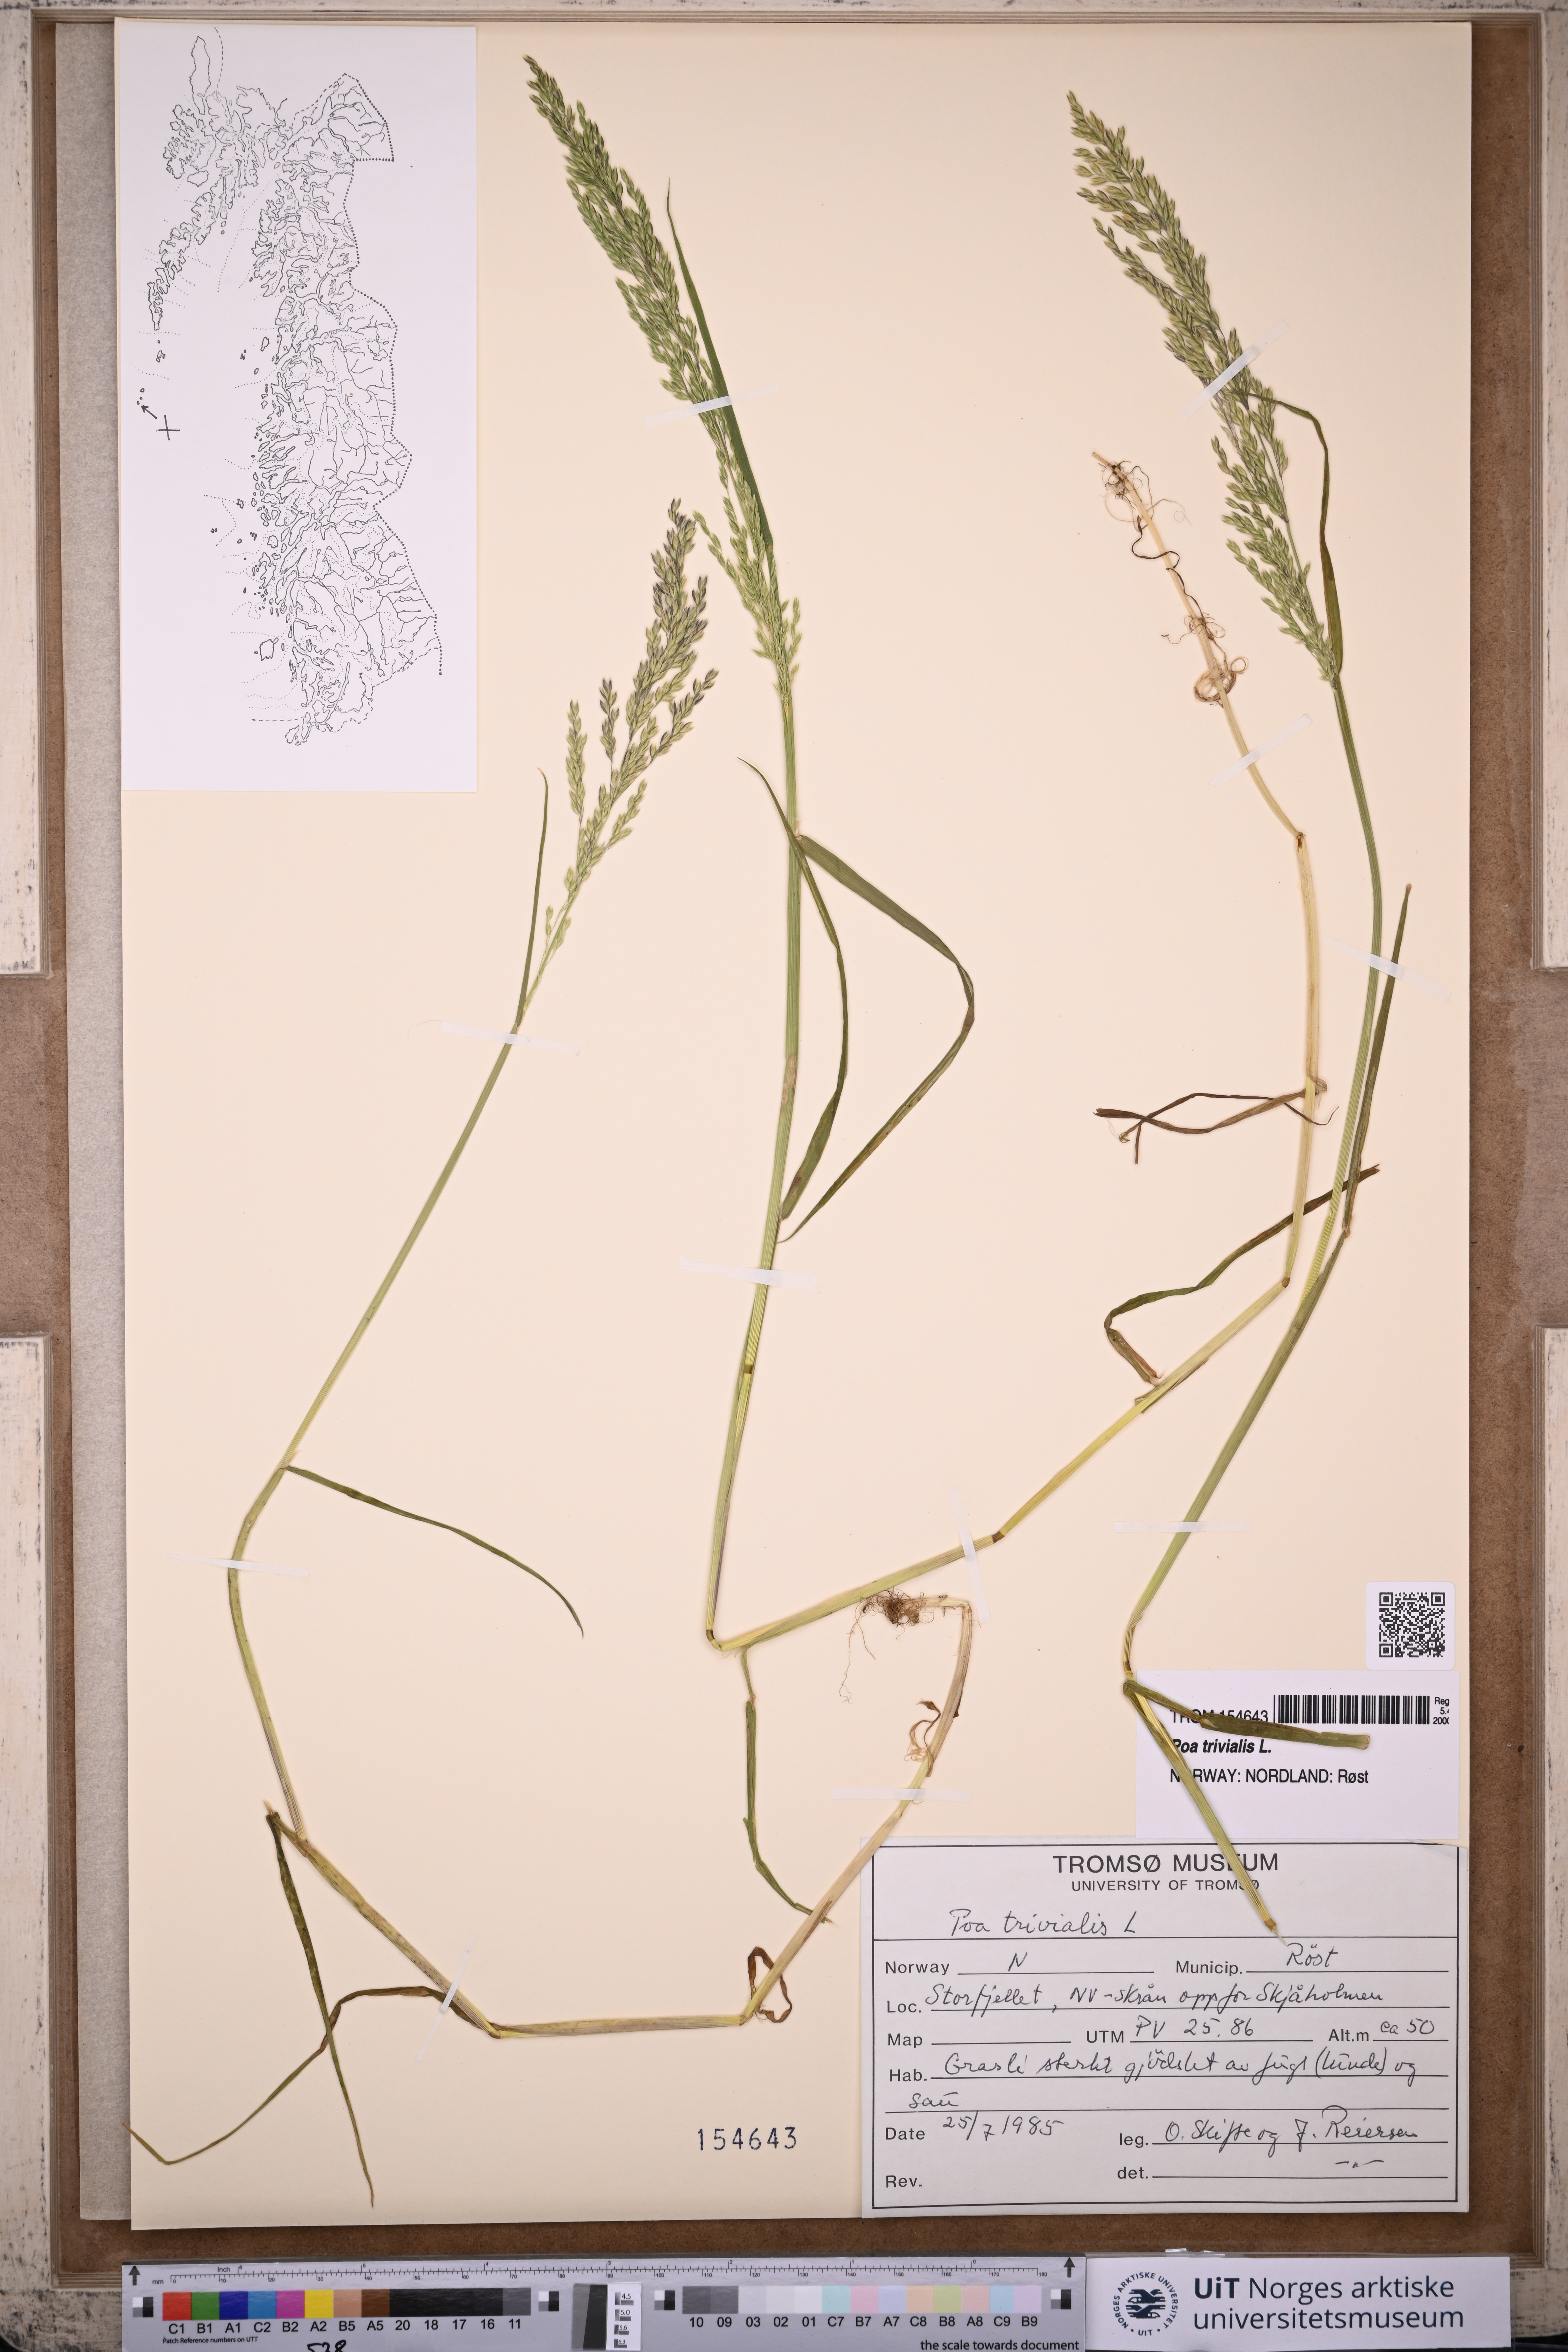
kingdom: Plantae
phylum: Tracheophyta
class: Liliopsida
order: Poales
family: Poaceae
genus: Poa
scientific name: Poa trivialis
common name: Rough bluegrass
